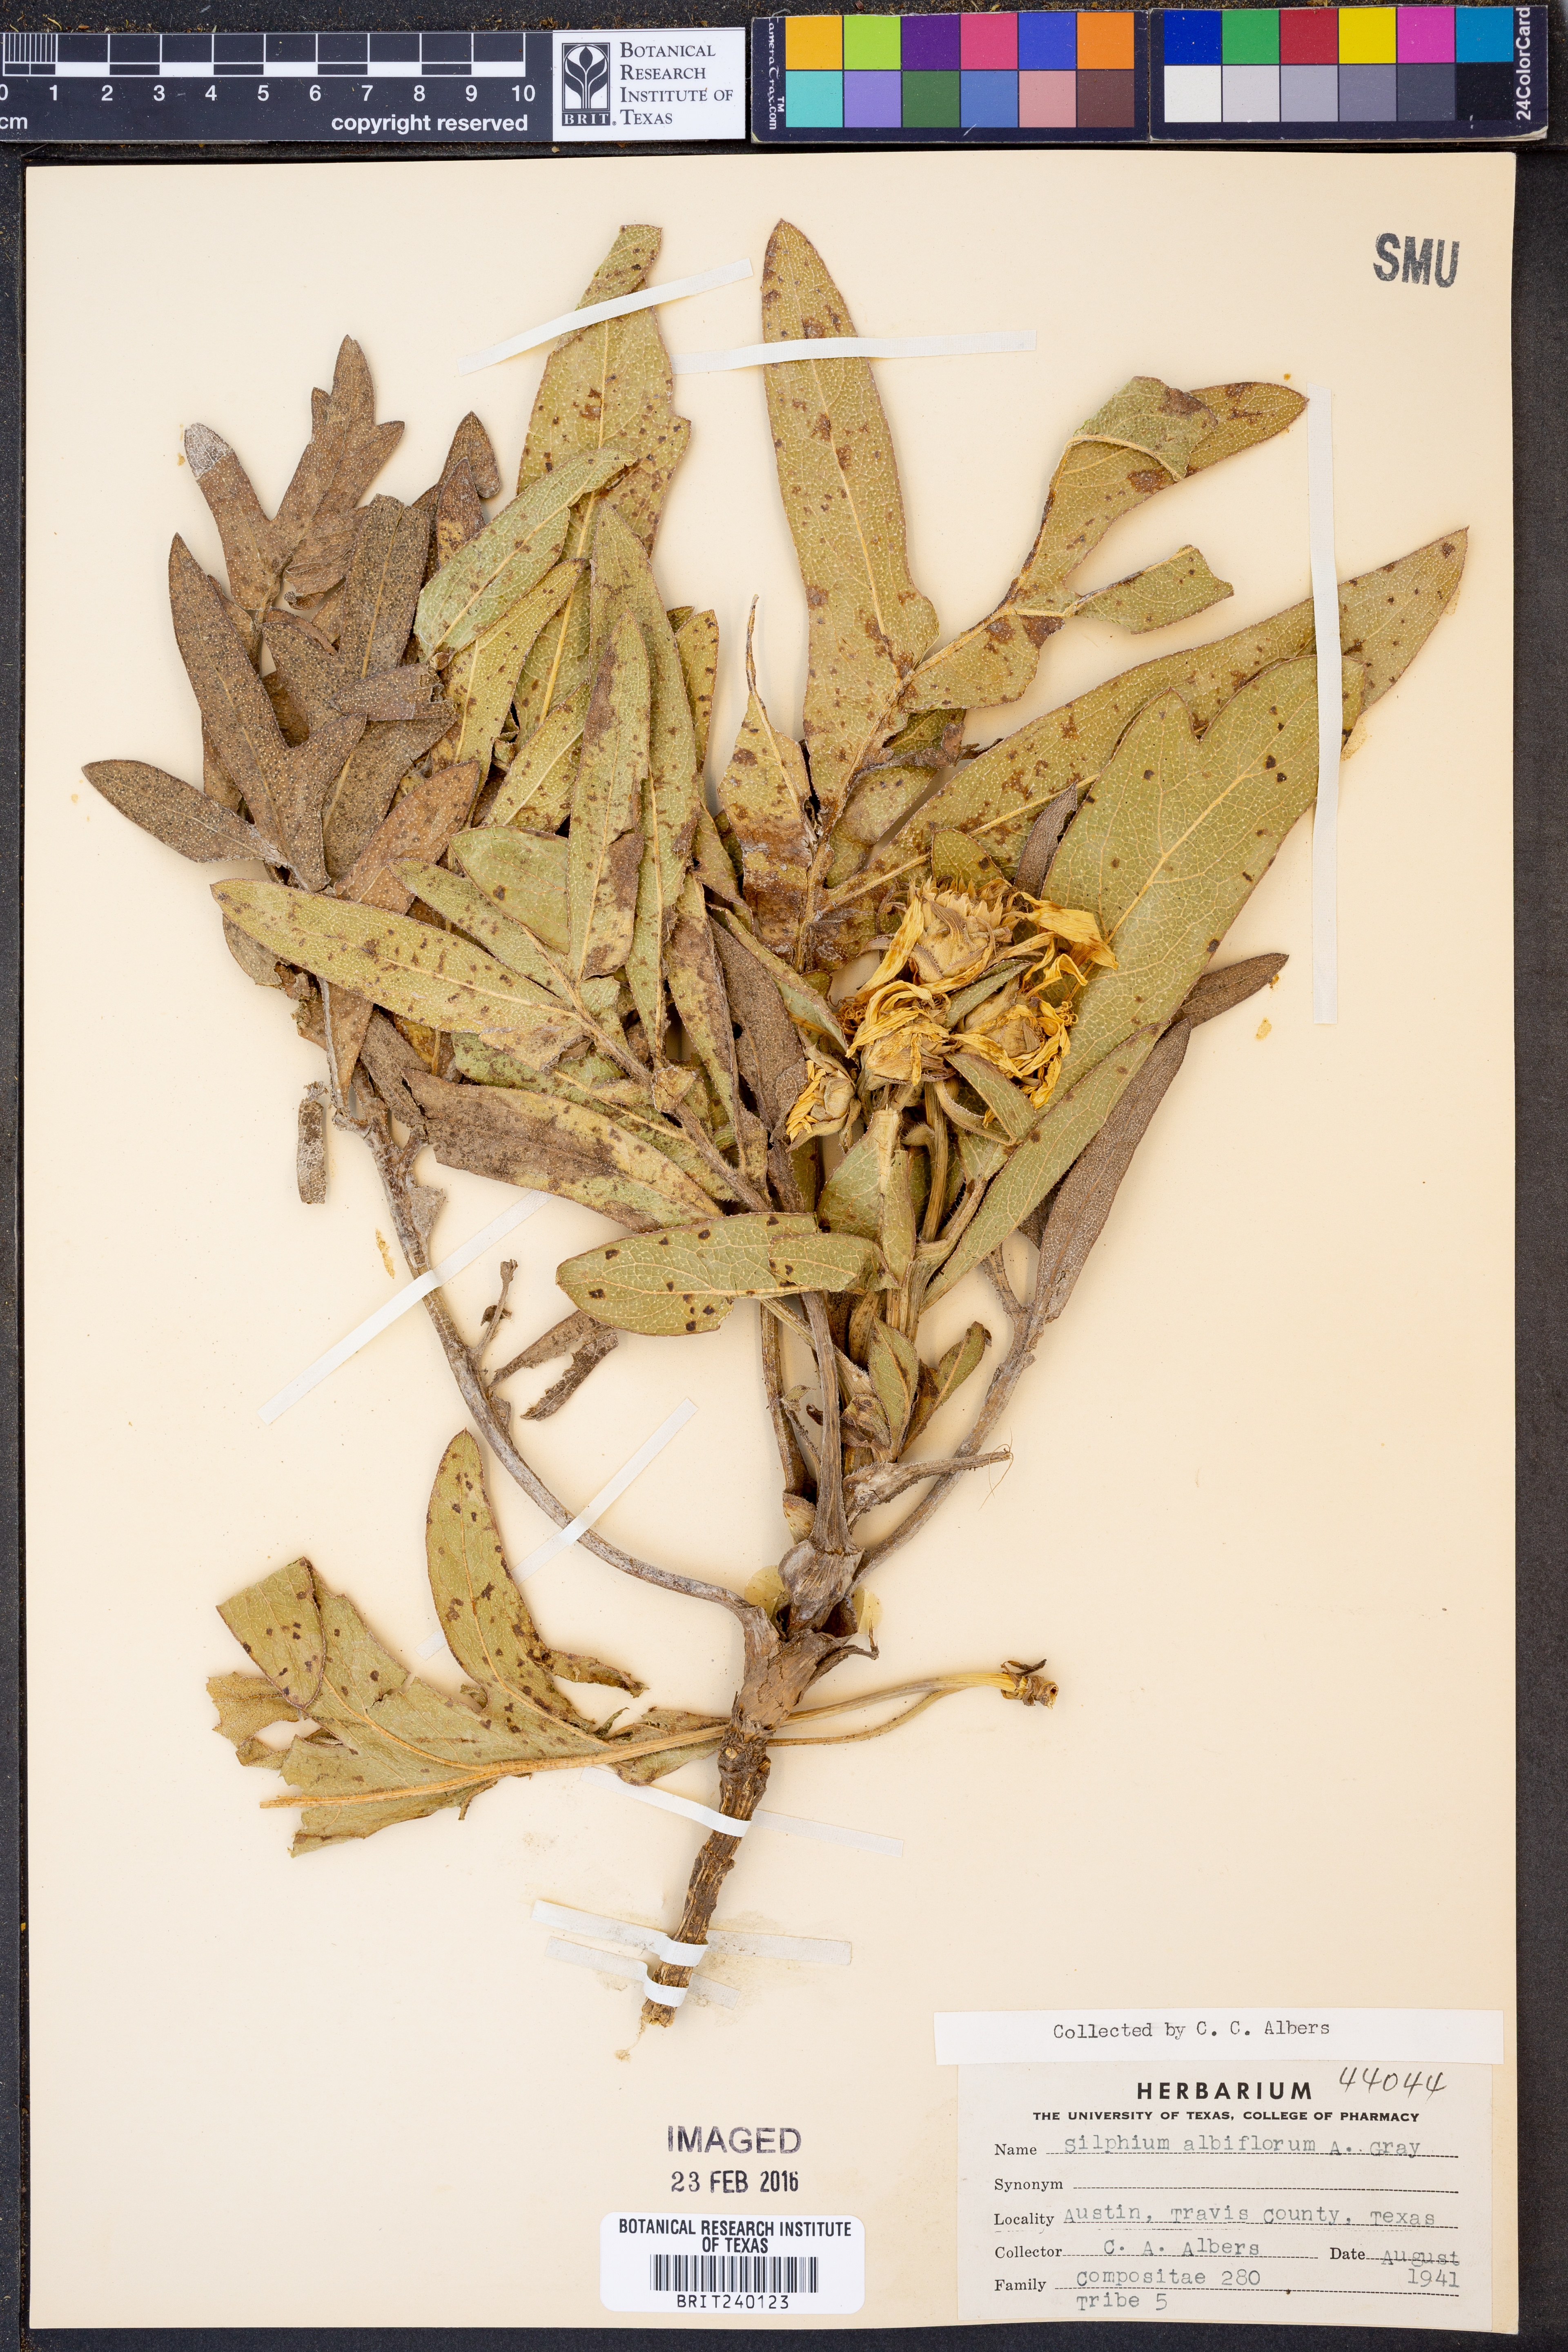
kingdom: Plantae
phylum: Tracheophyta
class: Magnoliopsida
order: Asterales
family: Asteraceae
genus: Silphium
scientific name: Silphium albiflorum
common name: White rosinweed
